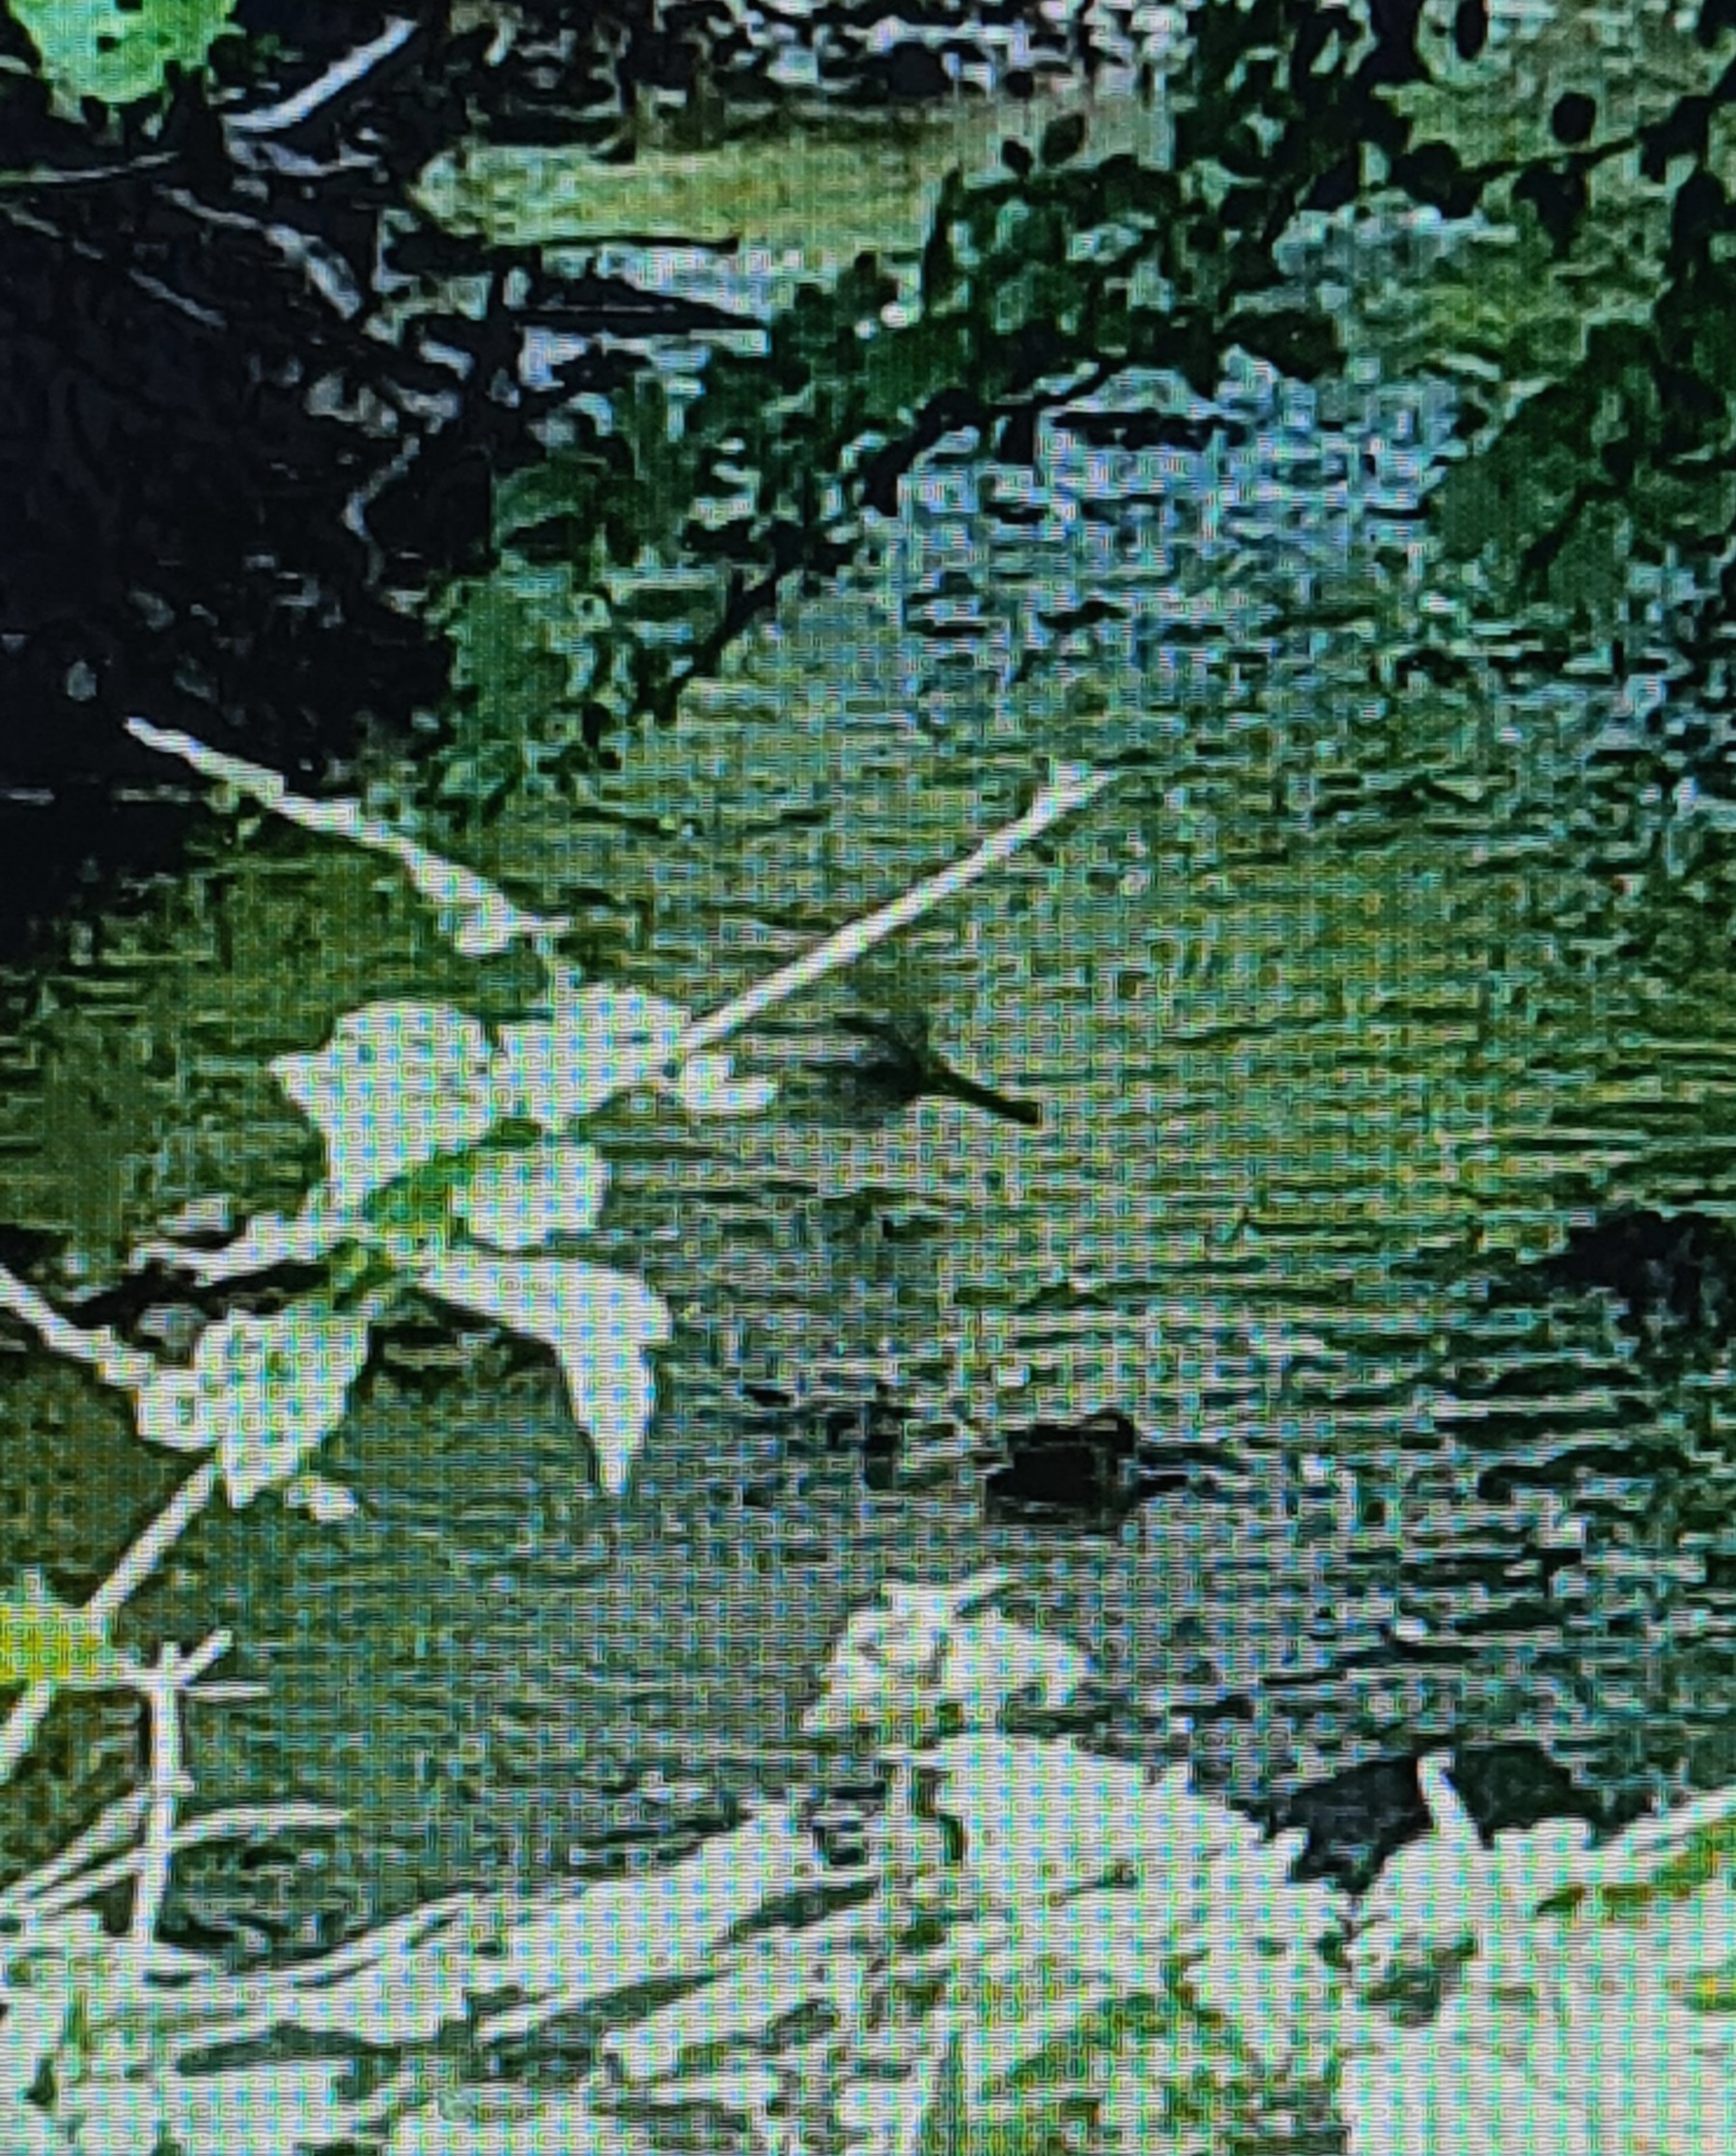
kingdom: Animalia
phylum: Chordata
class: Aves
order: Passeriformes
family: Motacillidae
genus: Motacilla
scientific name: Motacilla cinerea
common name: Bjergvipstjert
